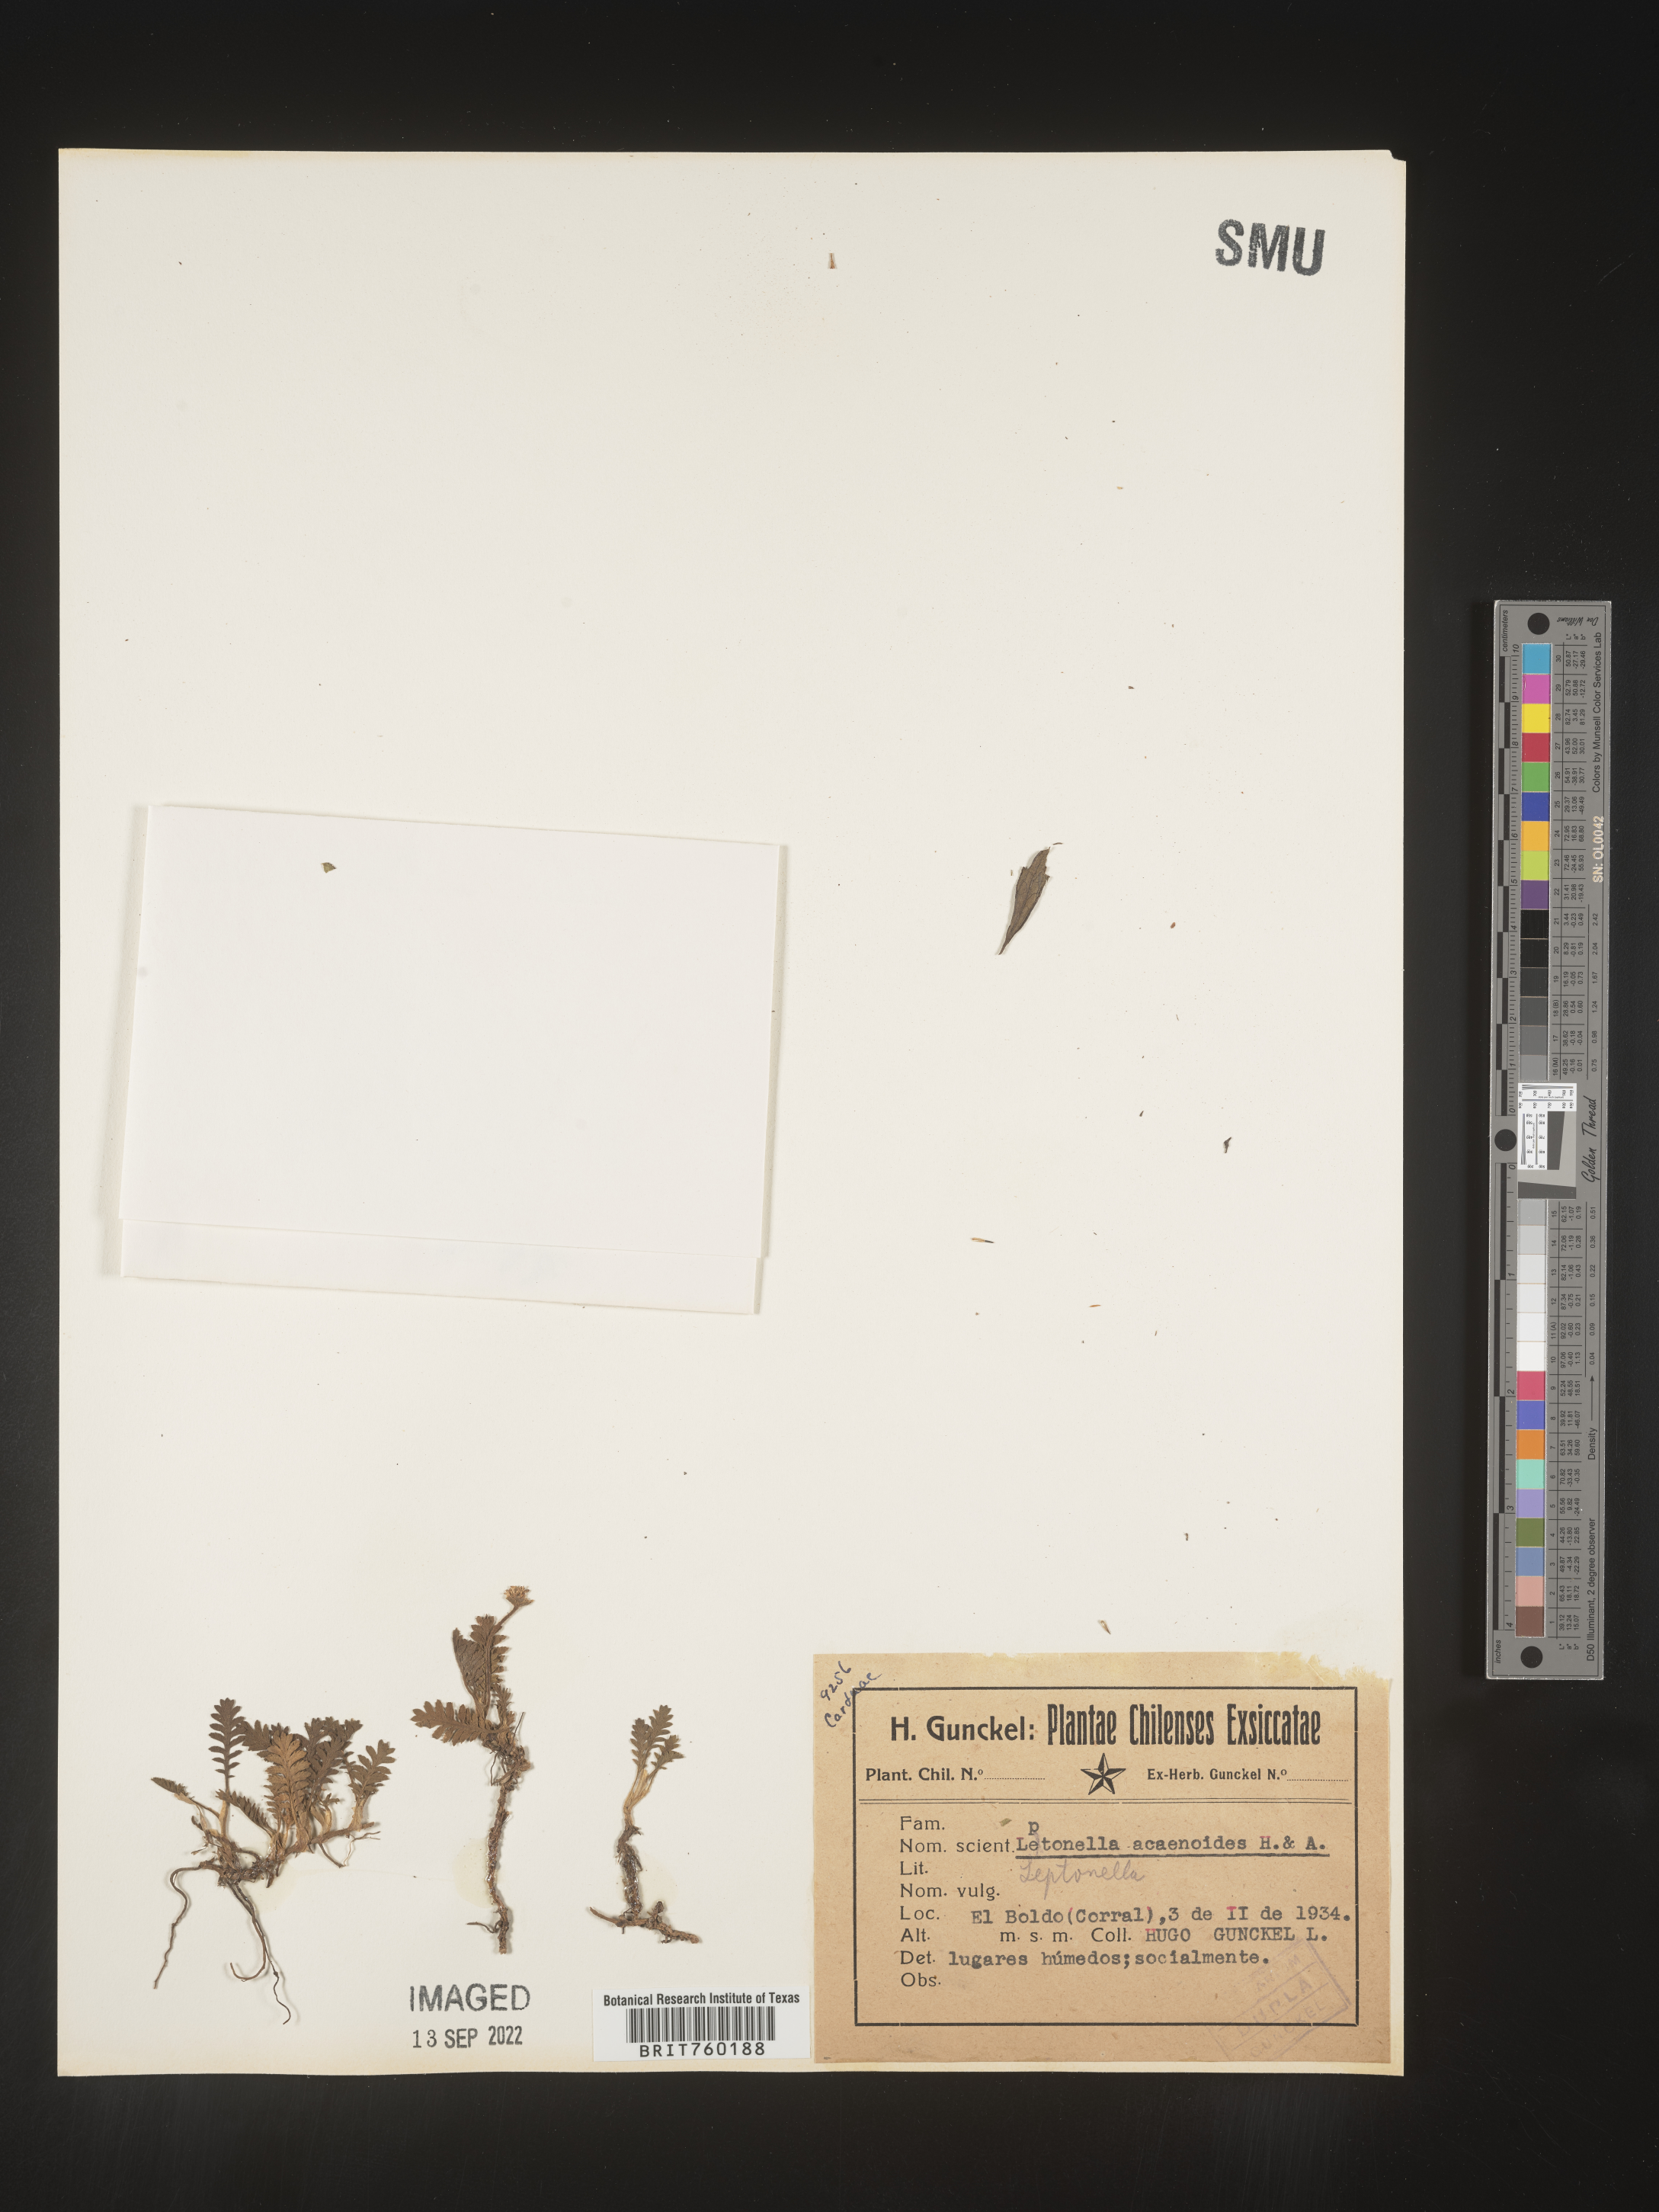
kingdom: Plantae
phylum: Tracheophyta
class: Magnoliopsida
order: Asterales
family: Asteraceae
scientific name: Asteraceae
